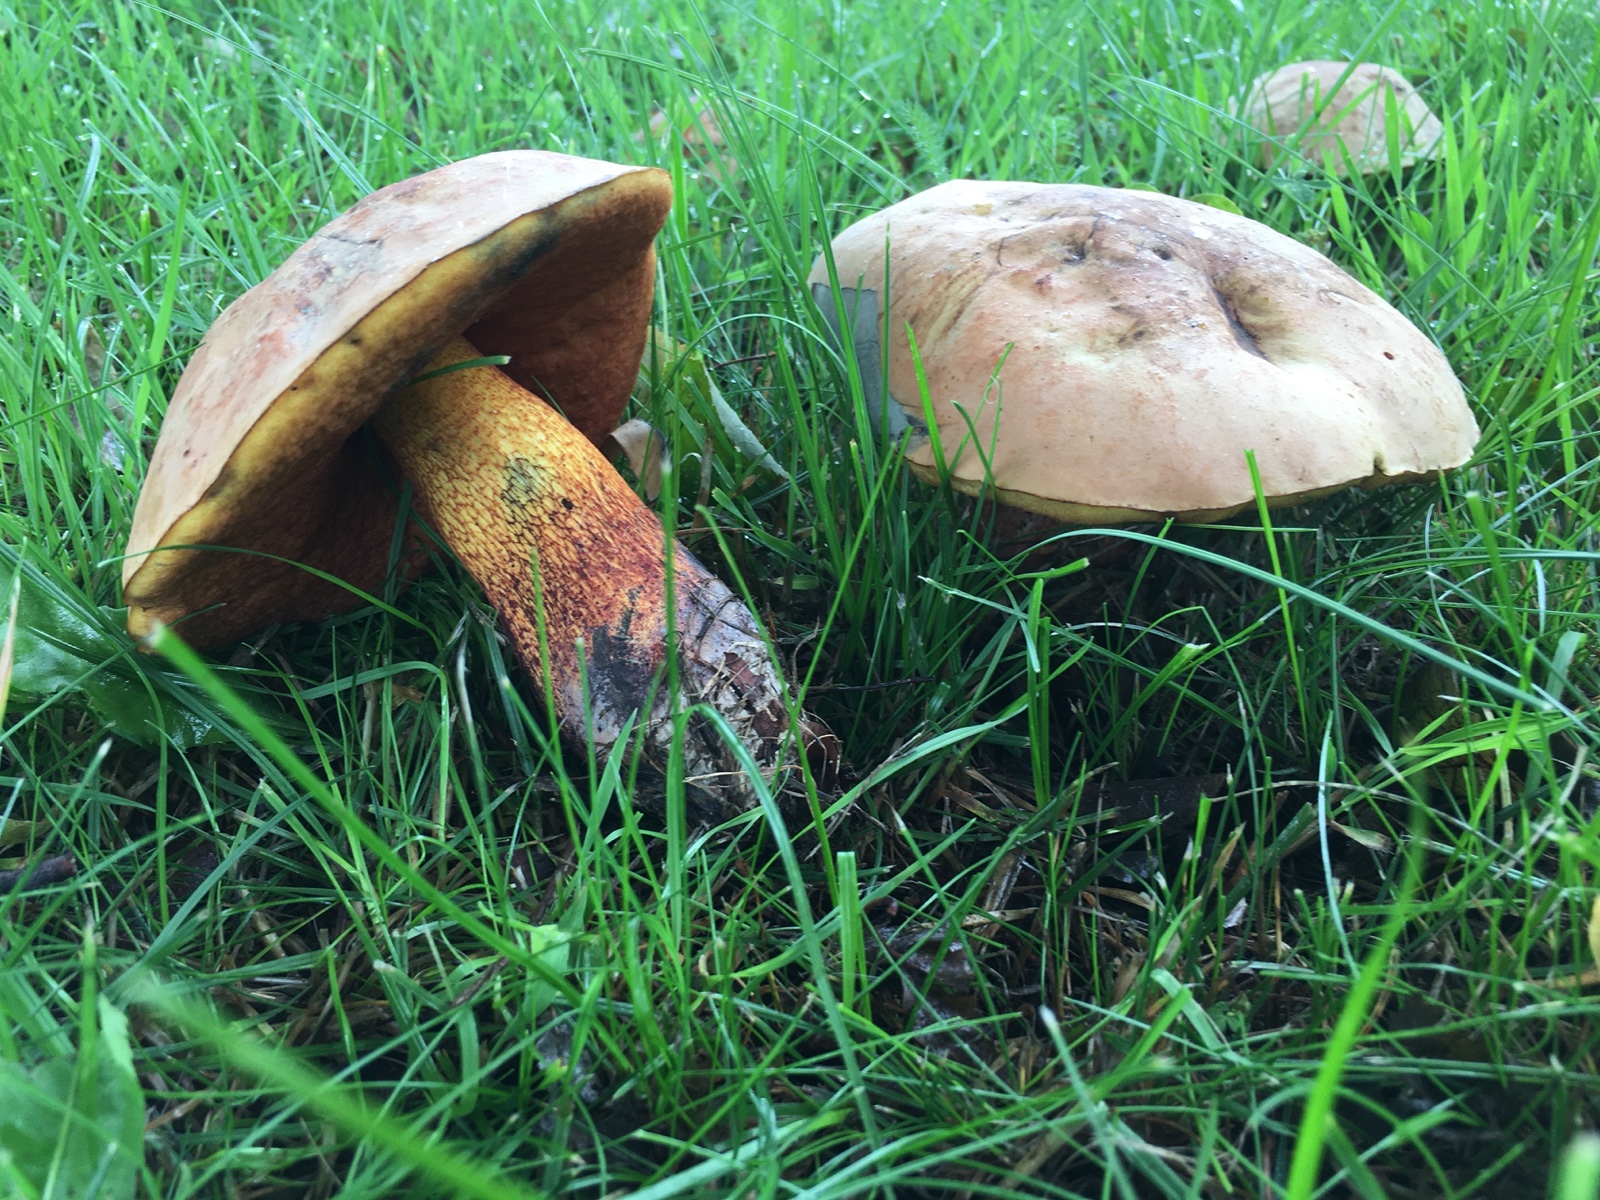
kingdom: Fungi
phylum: Basidiomycota
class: Agaricomycetes
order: Boletales
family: Boletaceae
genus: Suillellus
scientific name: Suillellus luridus
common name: netstokket indigorørhat
